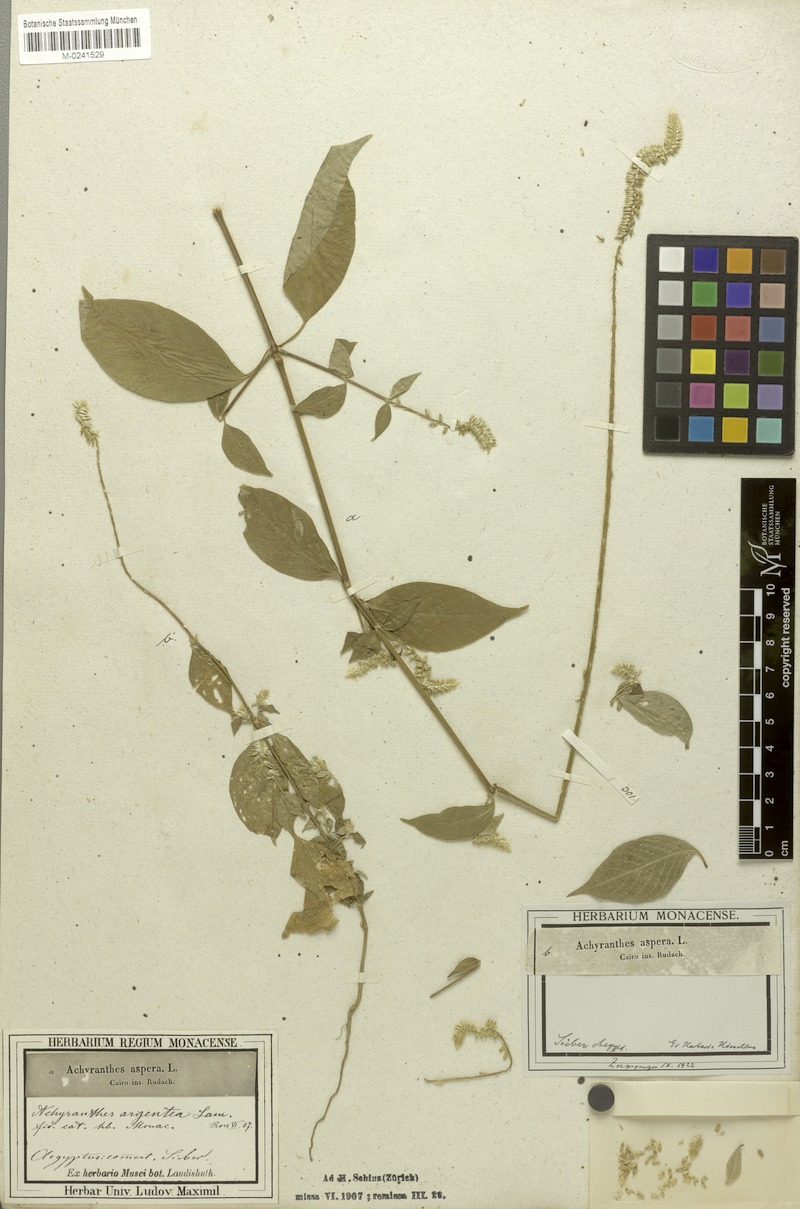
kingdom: Plantae
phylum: Tracheophyta
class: Magnoliopsida
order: Caryophyllales
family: Amaranthaceae
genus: Achyranthes
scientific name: Achyranthes aspera
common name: Devil's horsewhip
